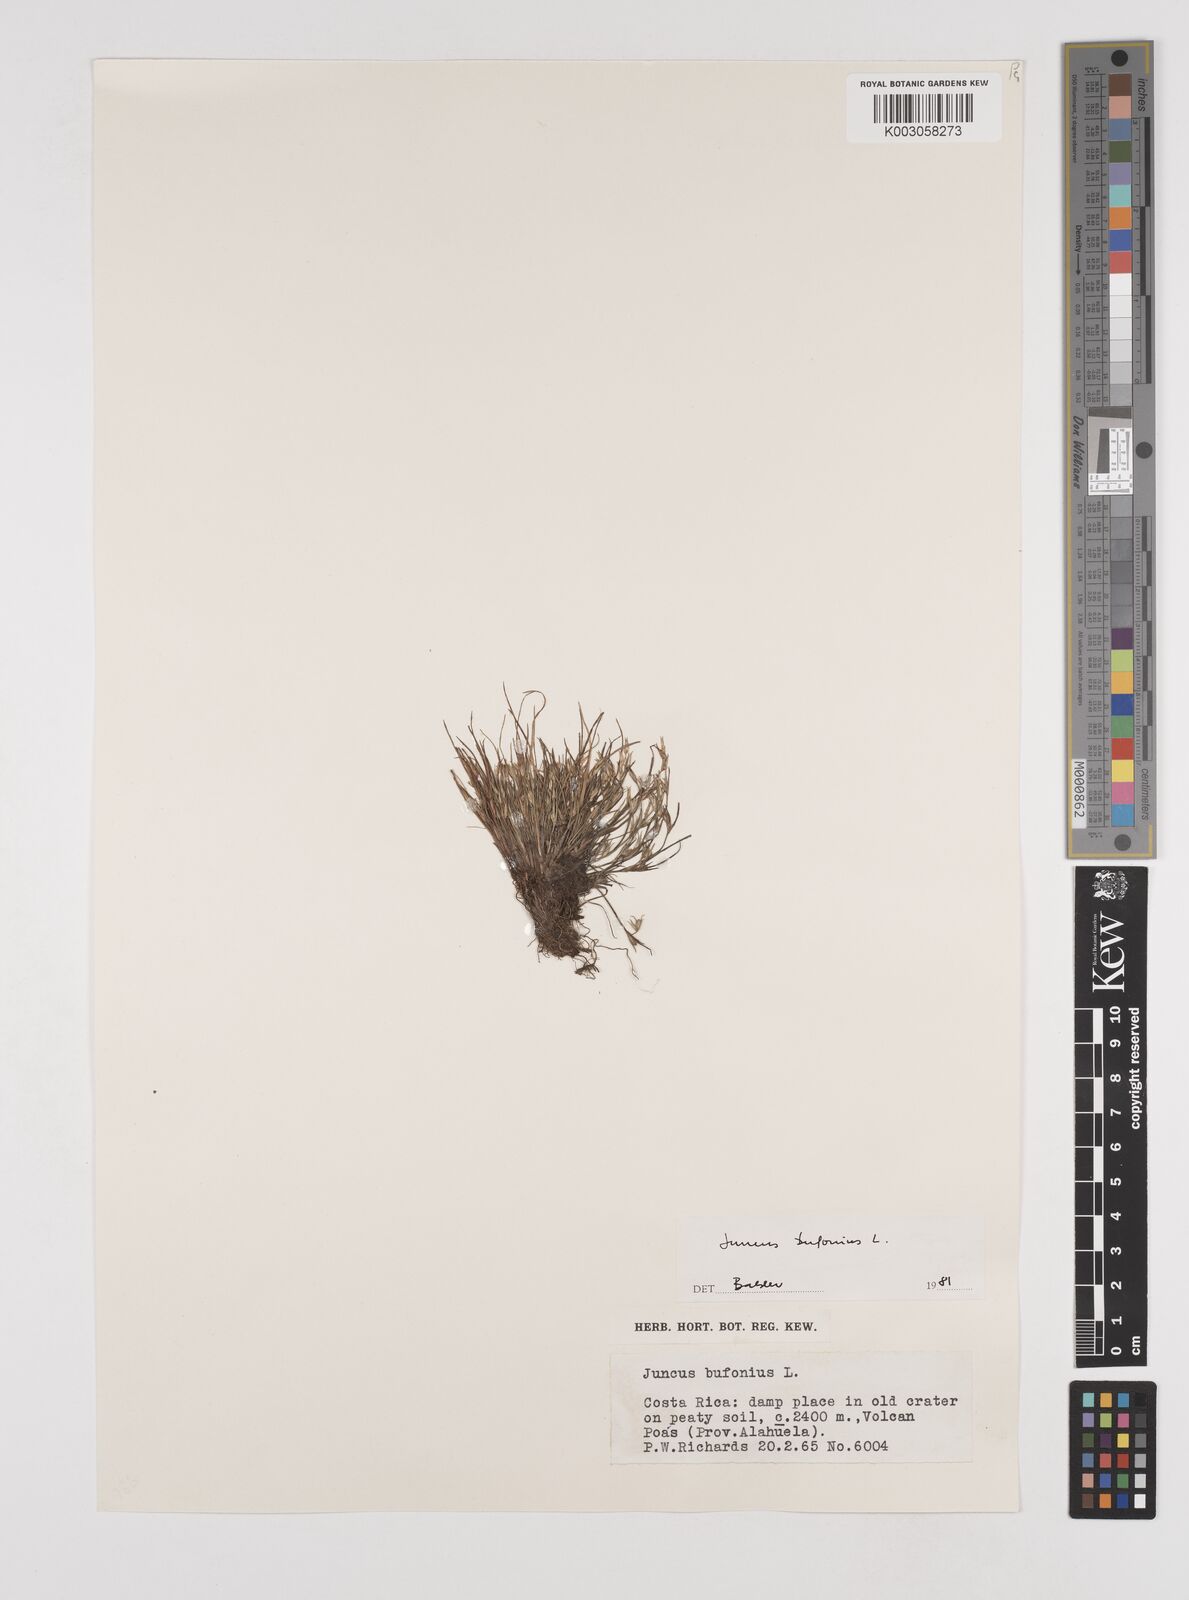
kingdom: Plantae
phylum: Tracheophyta
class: Liliopsida
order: Poales
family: Juncaceae
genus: Juncus
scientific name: Juncus bufonius
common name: Toad rush
